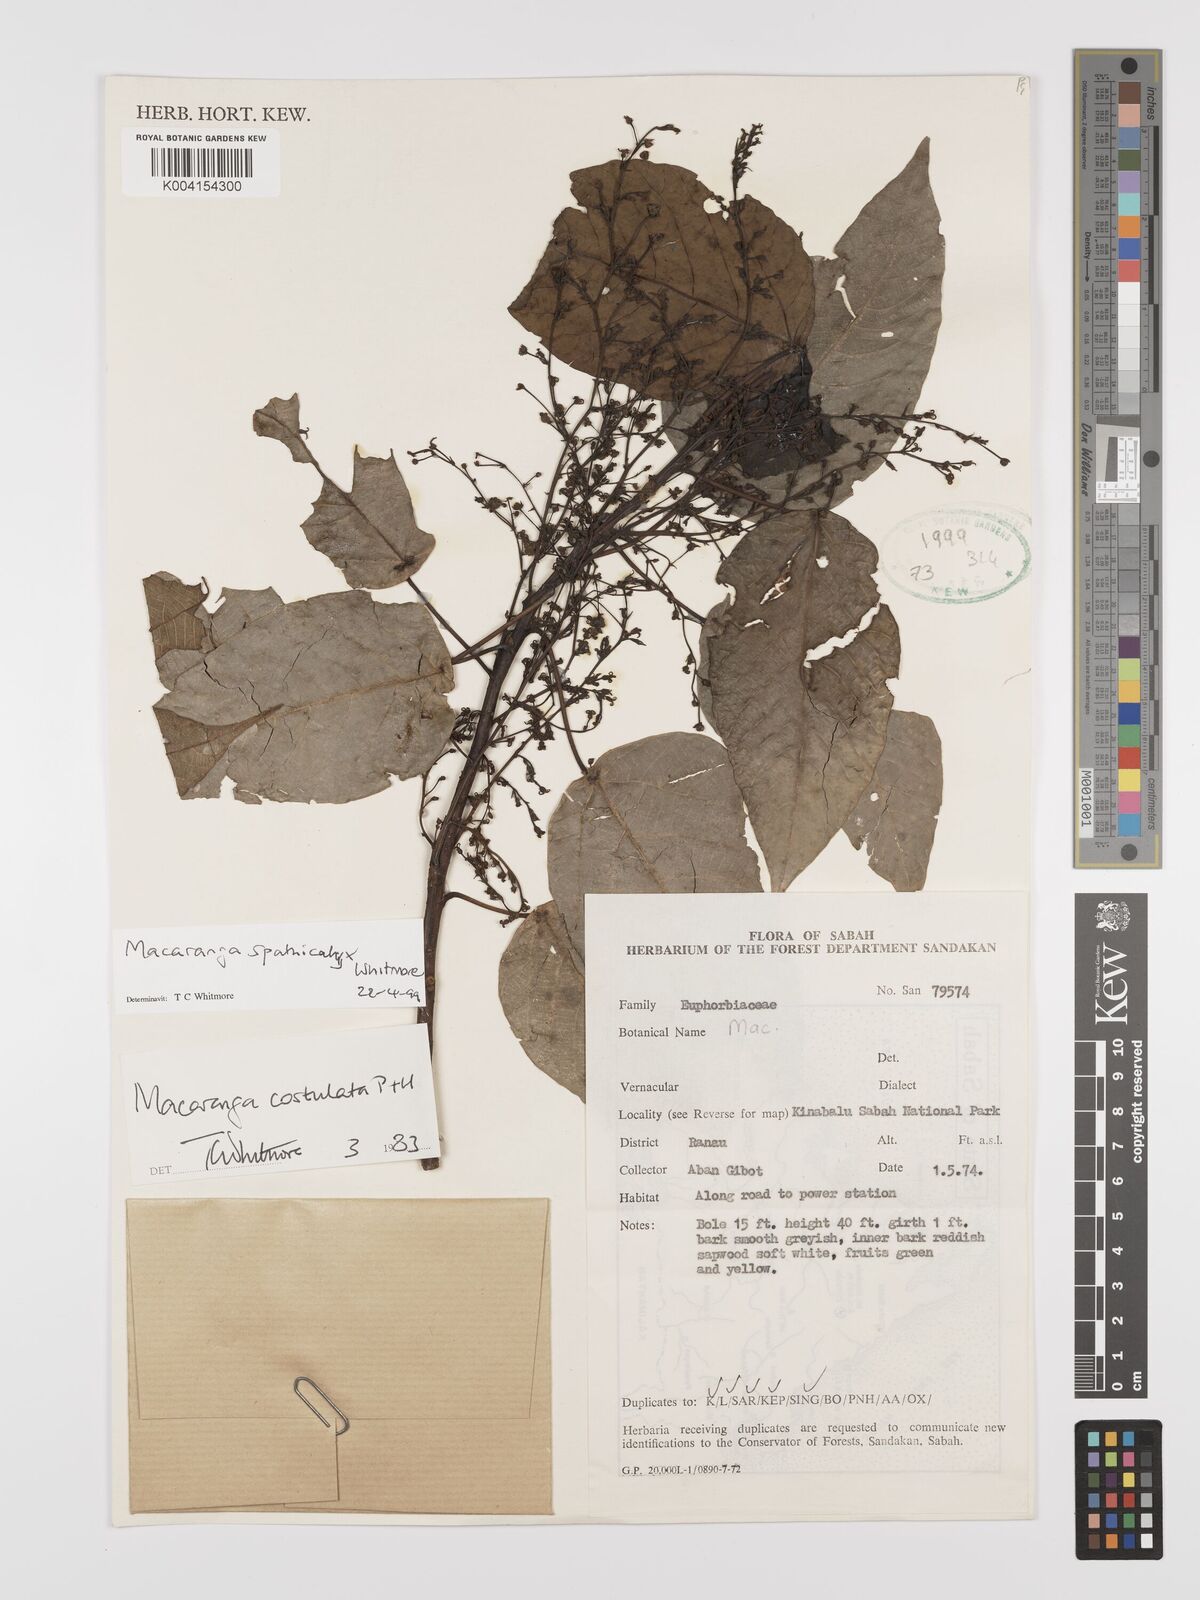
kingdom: Plantae
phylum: Tracheophyta
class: Magnoliopsida
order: Malpighiales
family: Euphorbiaceae
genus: Macaranga
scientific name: Macaranga spathicalyx
